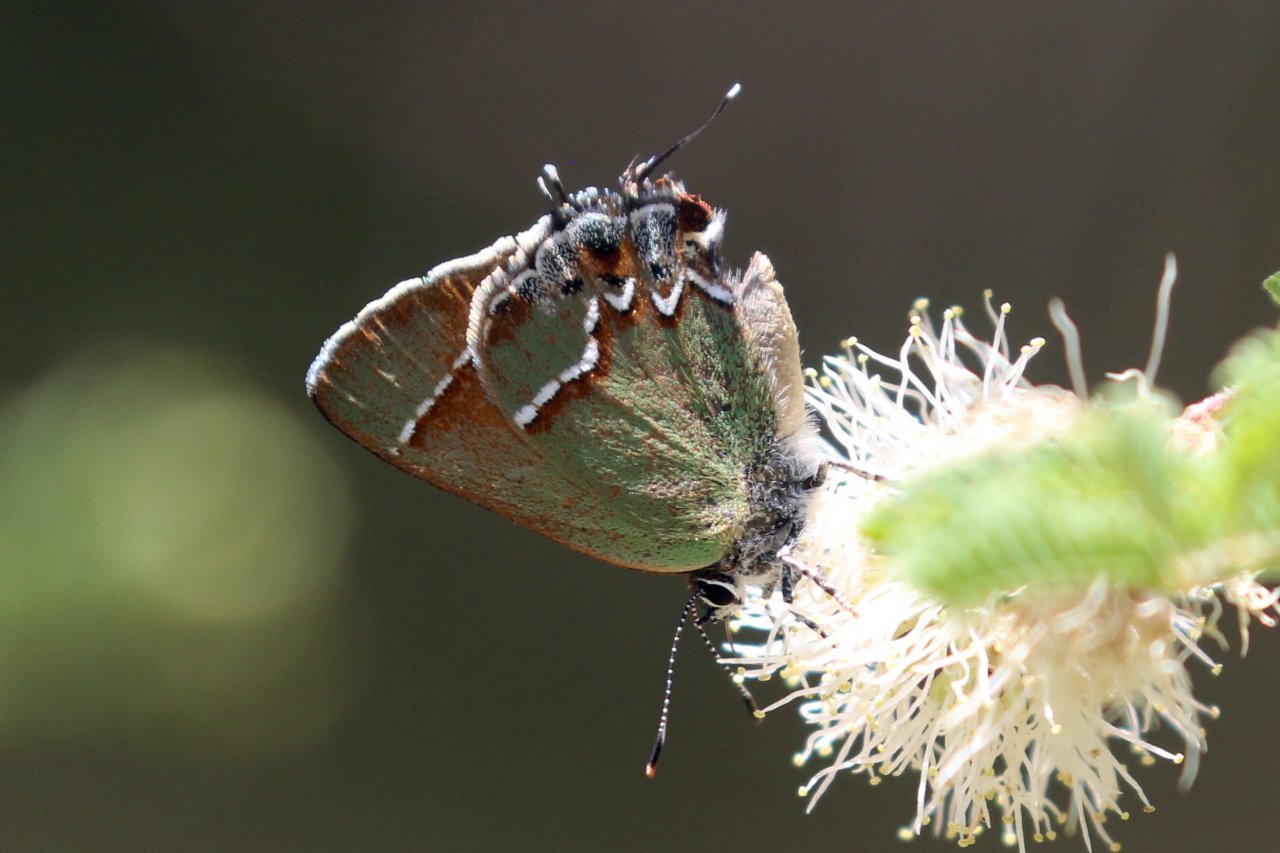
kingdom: Animalia
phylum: Arthropoda
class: Insecta
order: Lepidoptera
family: Lycaenidae
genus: Mitoura
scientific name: Mitoura gryneus
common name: Juniper Hairstreak
